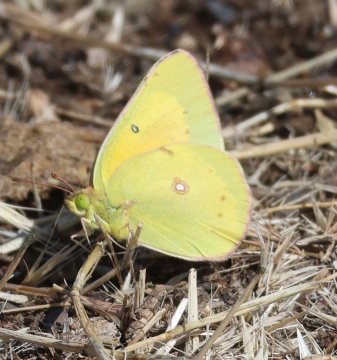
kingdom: Animalia
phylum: Arthropoda
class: Insecta
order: Lepidoptera
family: Pieridae
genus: Colias
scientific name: Colias eurytheme
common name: Orange Sulphur
